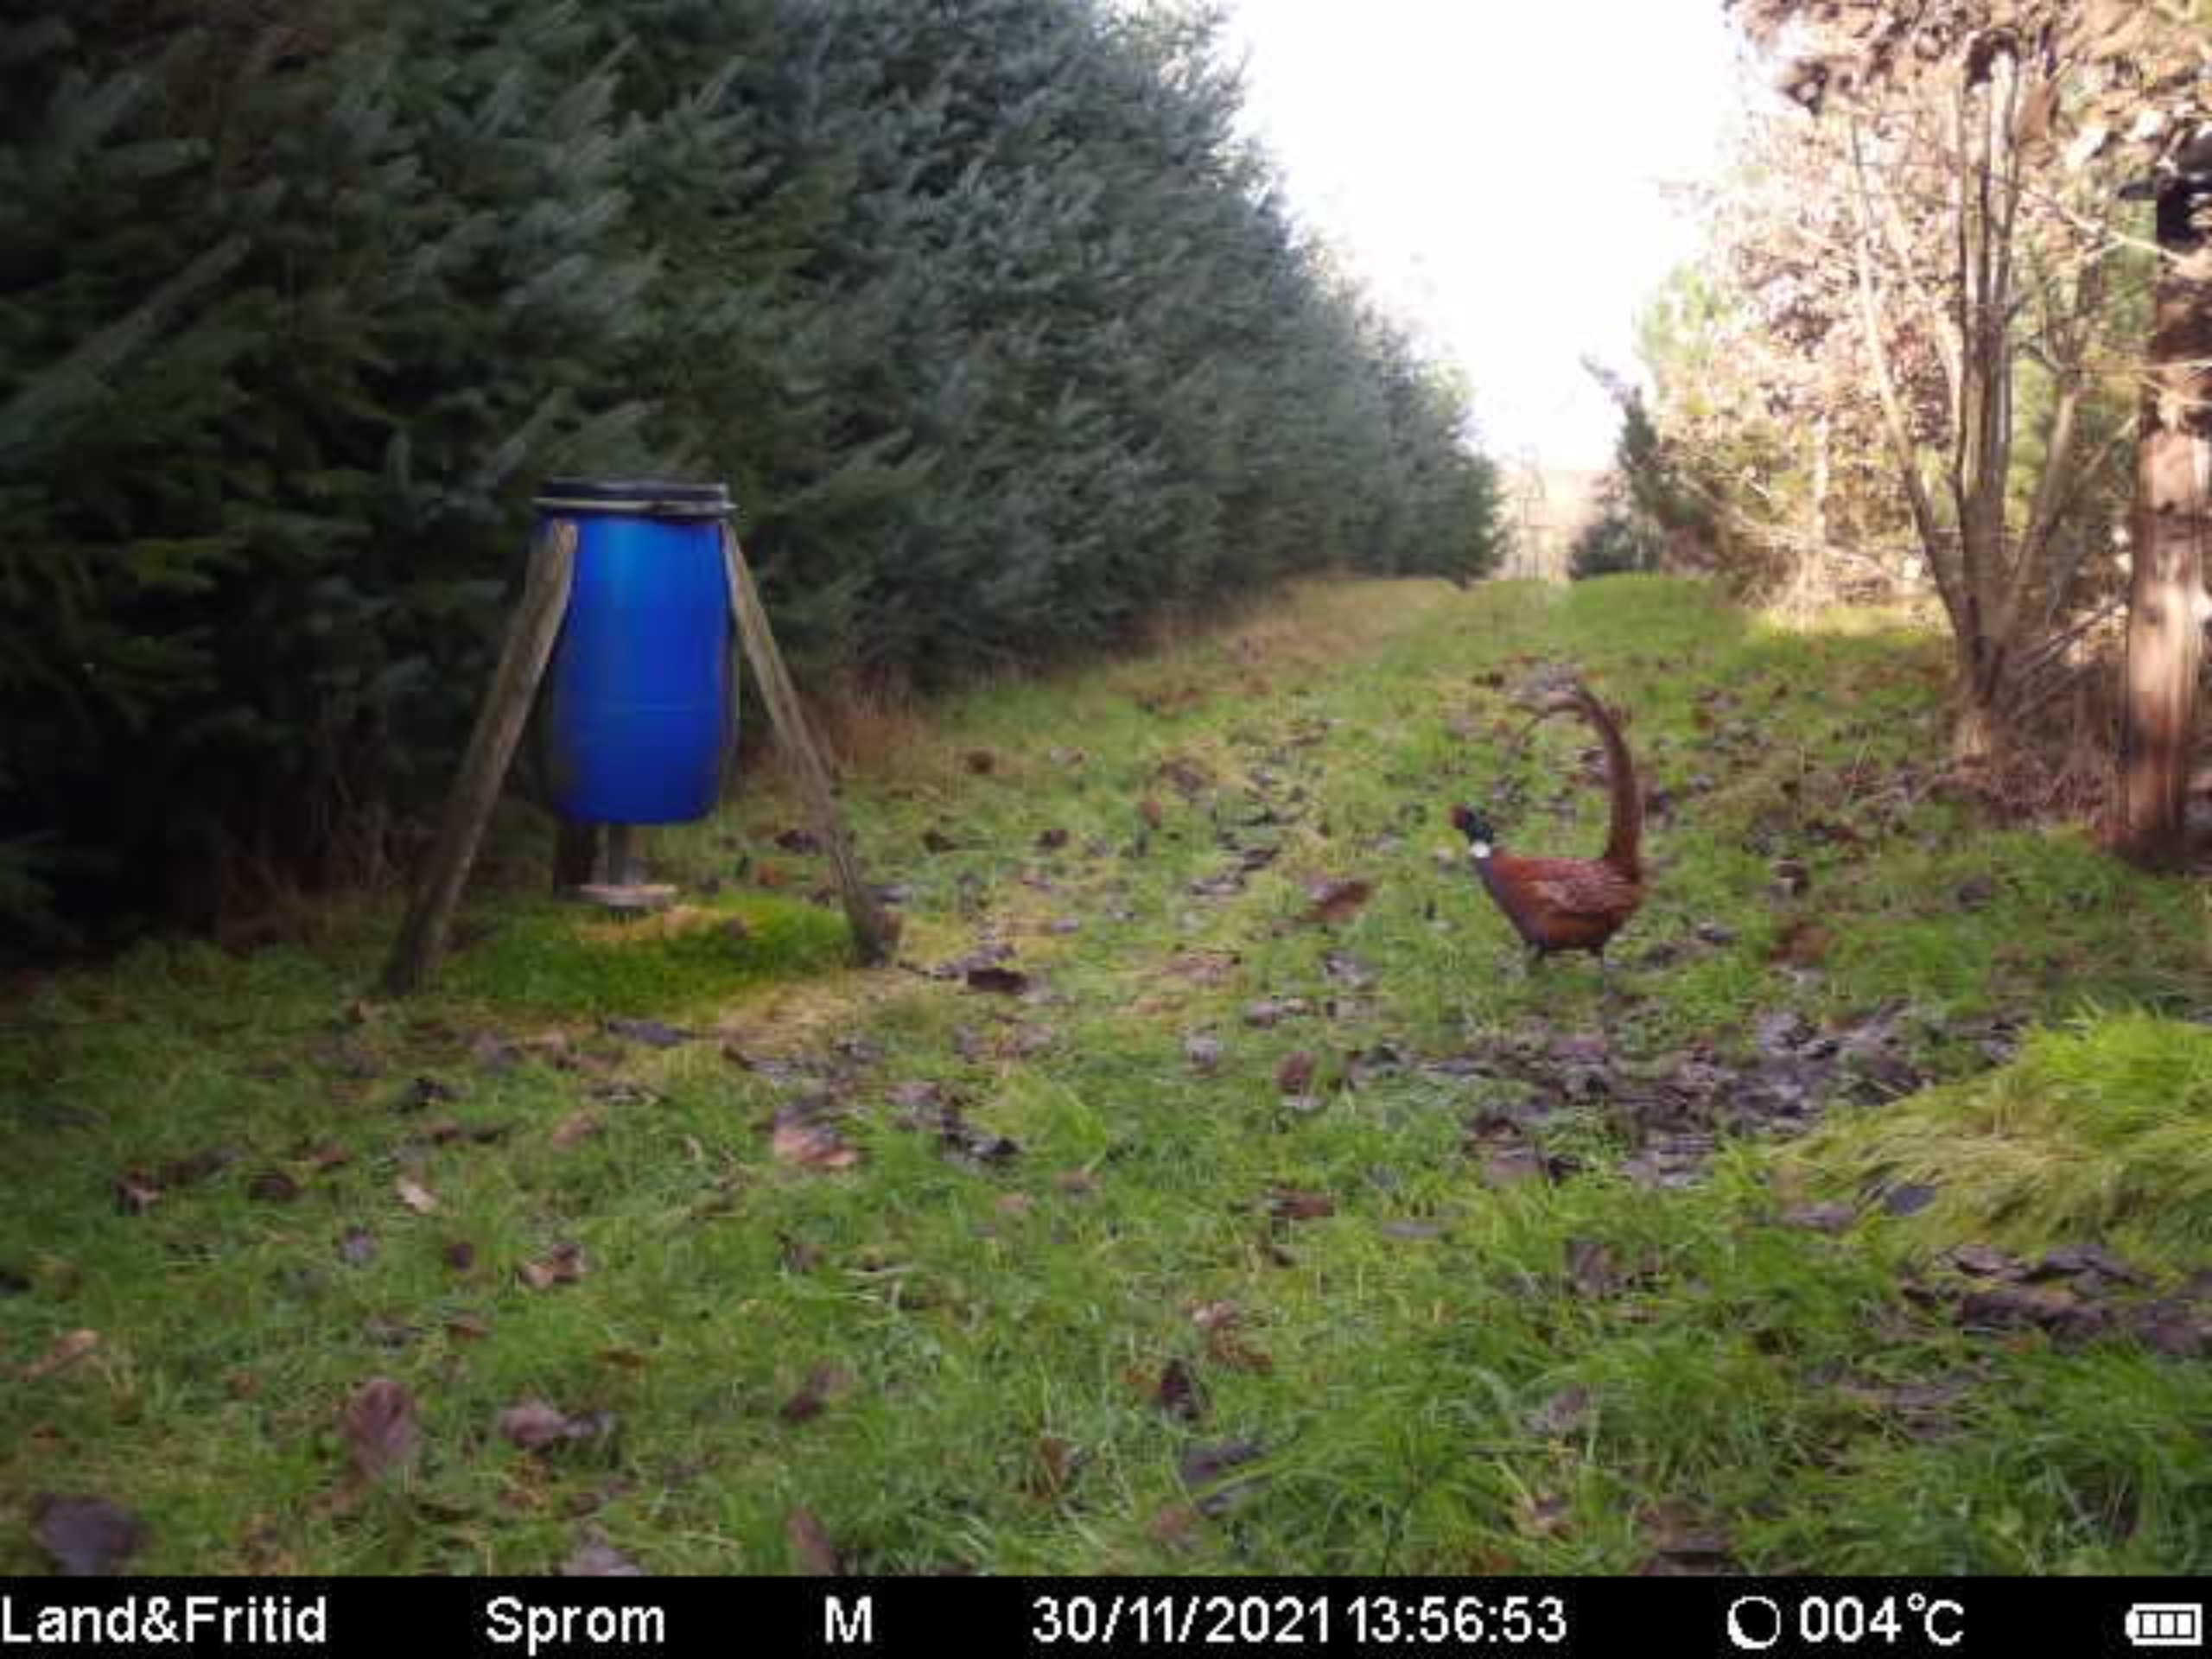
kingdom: Animalia
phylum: Chordata
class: Aves
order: Galliformes
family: Phasianidae
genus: Phasianus
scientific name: Phasianus colchicus
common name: Fasan
